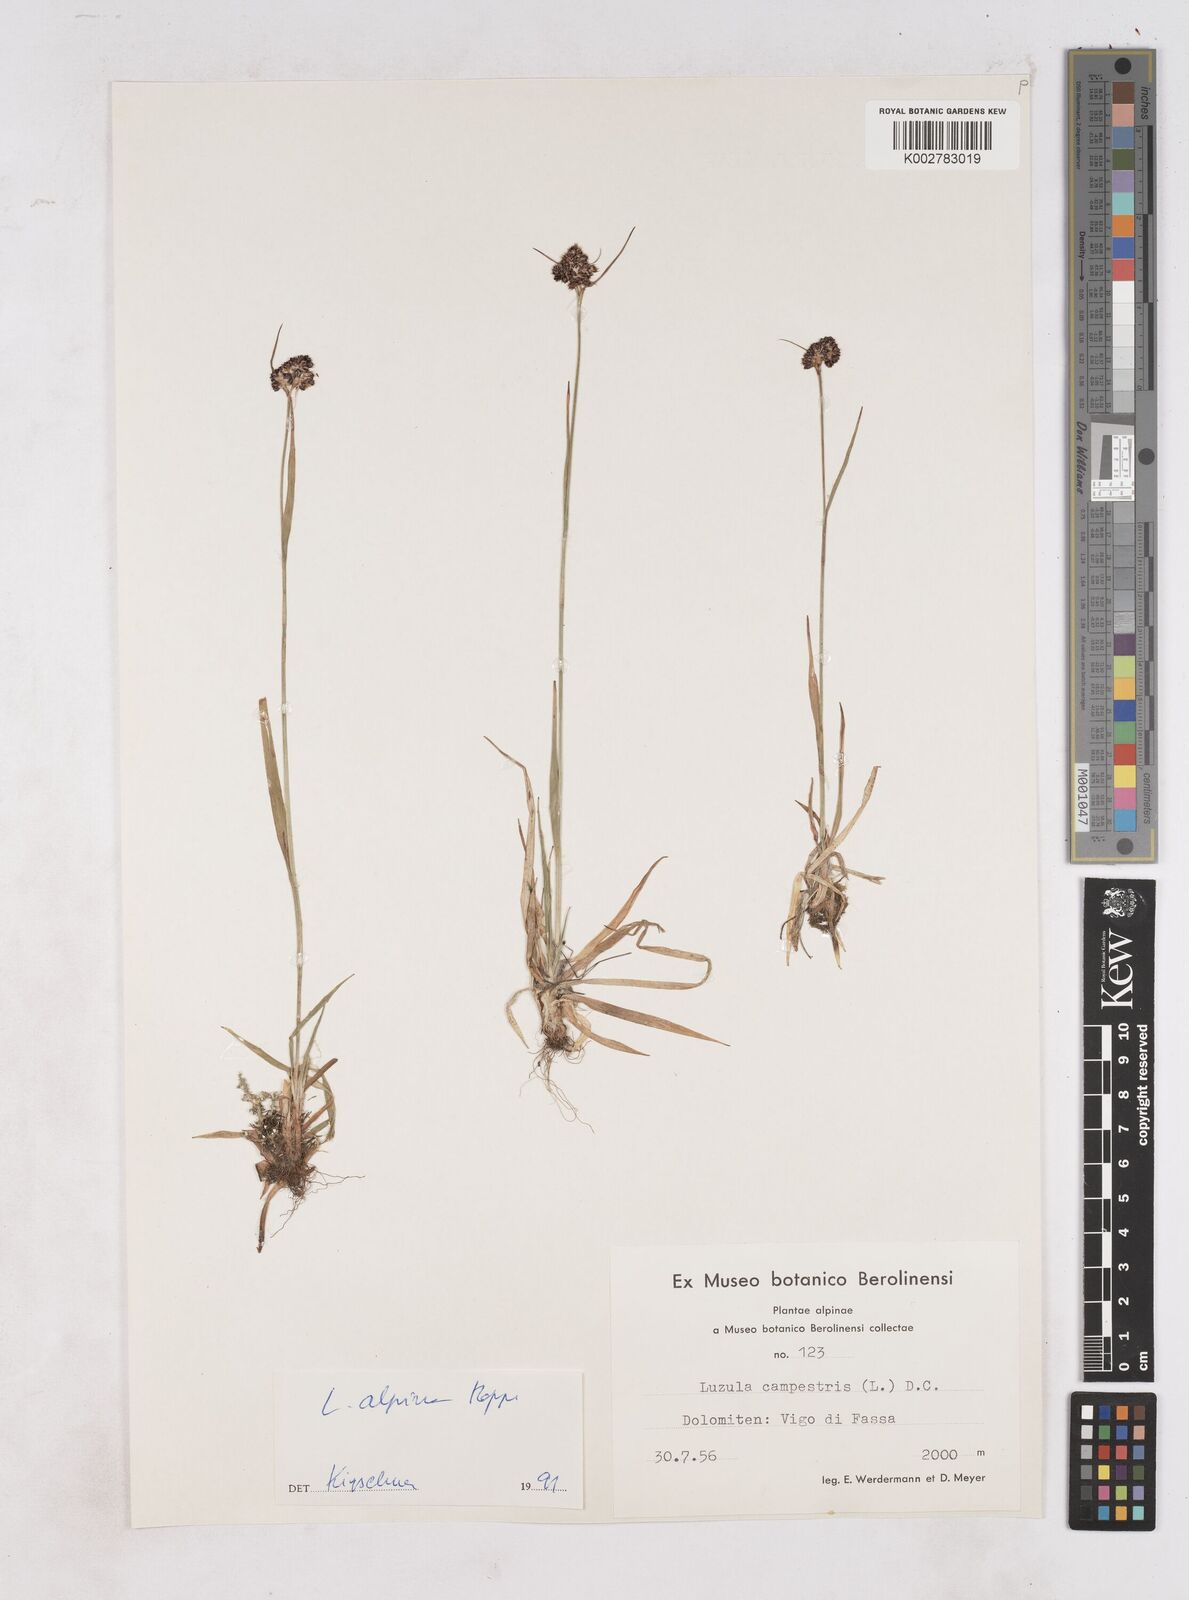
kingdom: Plantae
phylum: Tracheophyta
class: Liliopsida
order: Poales
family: Juncaceae
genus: Luzula
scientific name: Luzula campestris
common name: Field wood-rush
